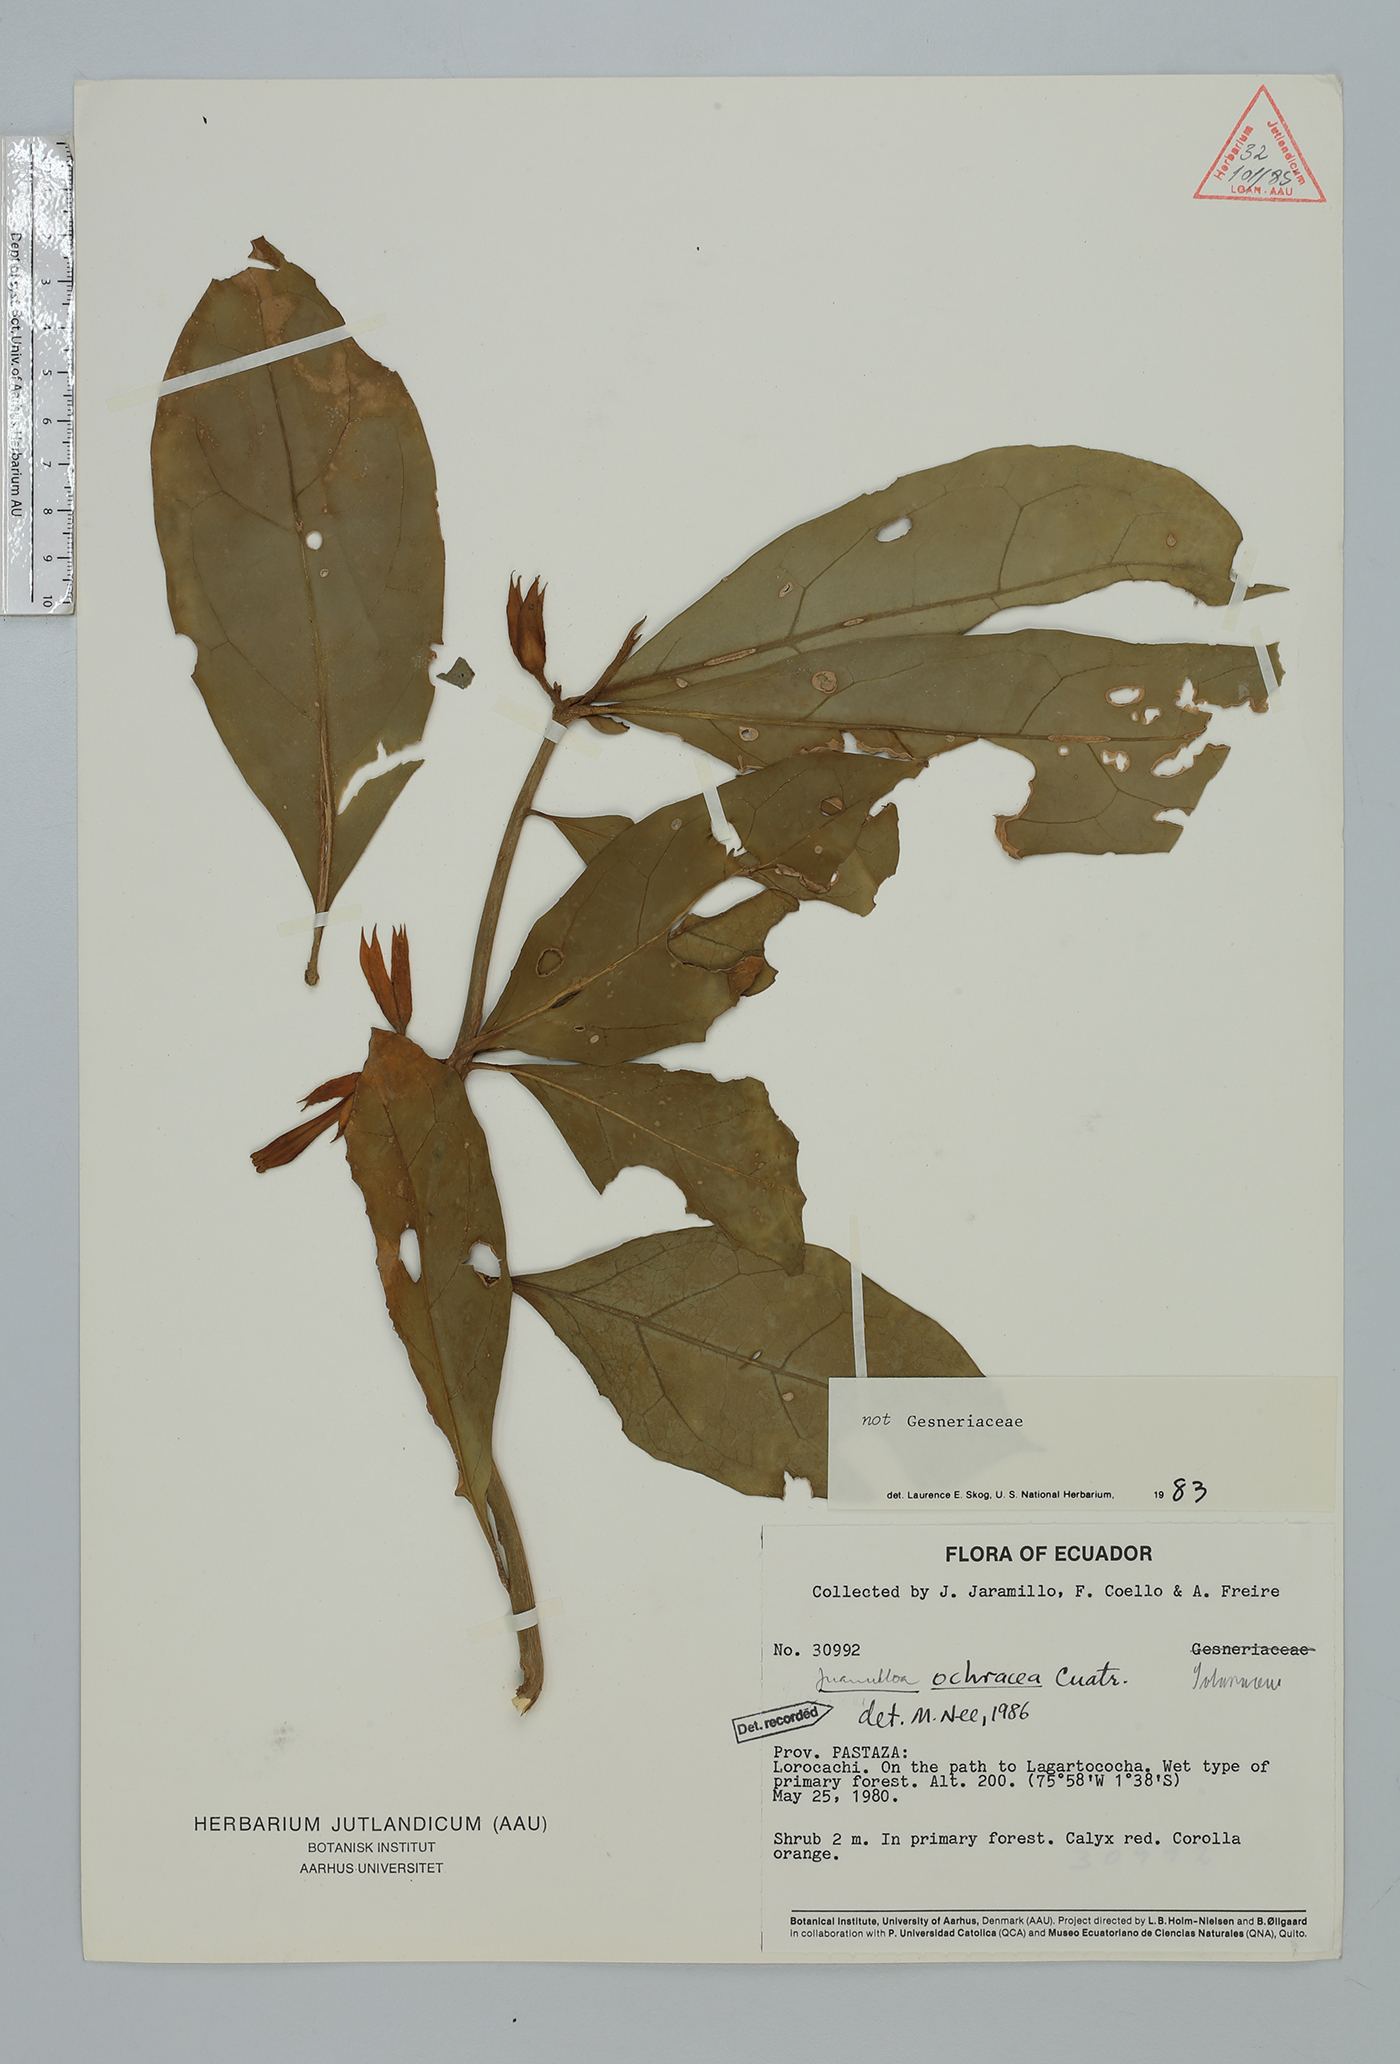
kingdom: Plantae
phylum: Tracheophyta
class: Magnoliopsida
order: Solanales
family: Solanaceae
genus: Hawkesiophyton
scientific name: Hawkesiophyton ochraceum
